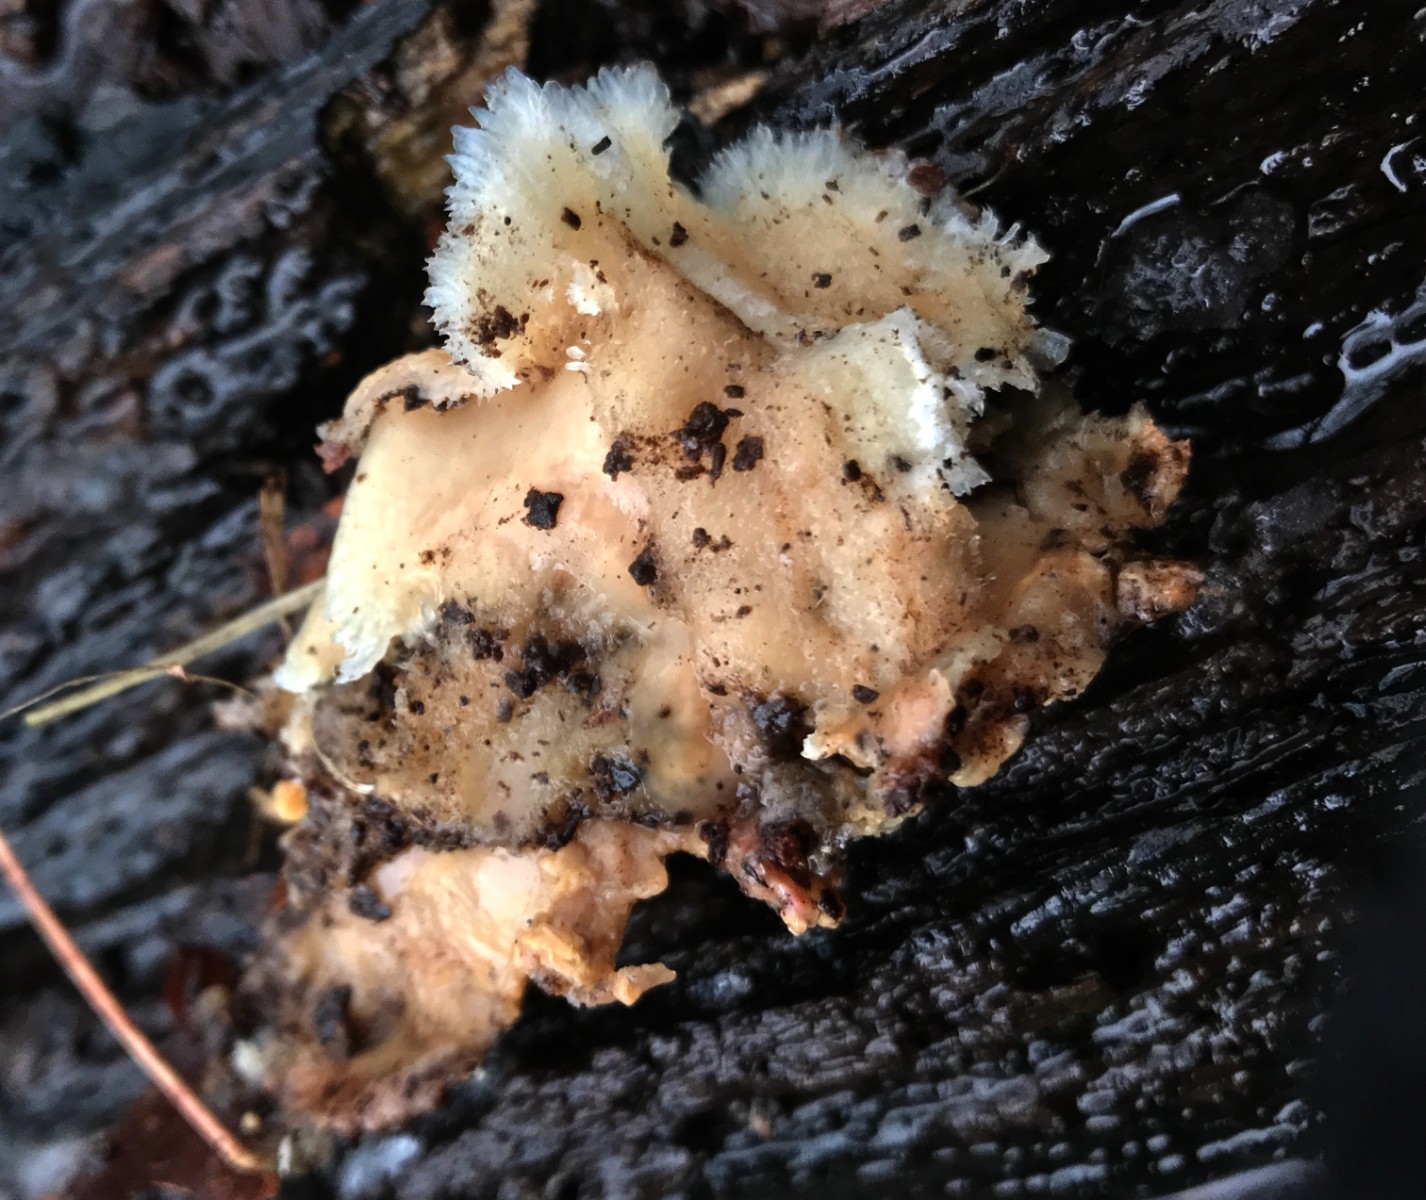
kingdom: Fungi
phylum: Basidiomycota
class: Agaricomycetes
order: Polyporales
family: Meruliaceae
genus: Phlebia
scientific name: Phlebia tremellosa
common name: bævrende åresvamp
